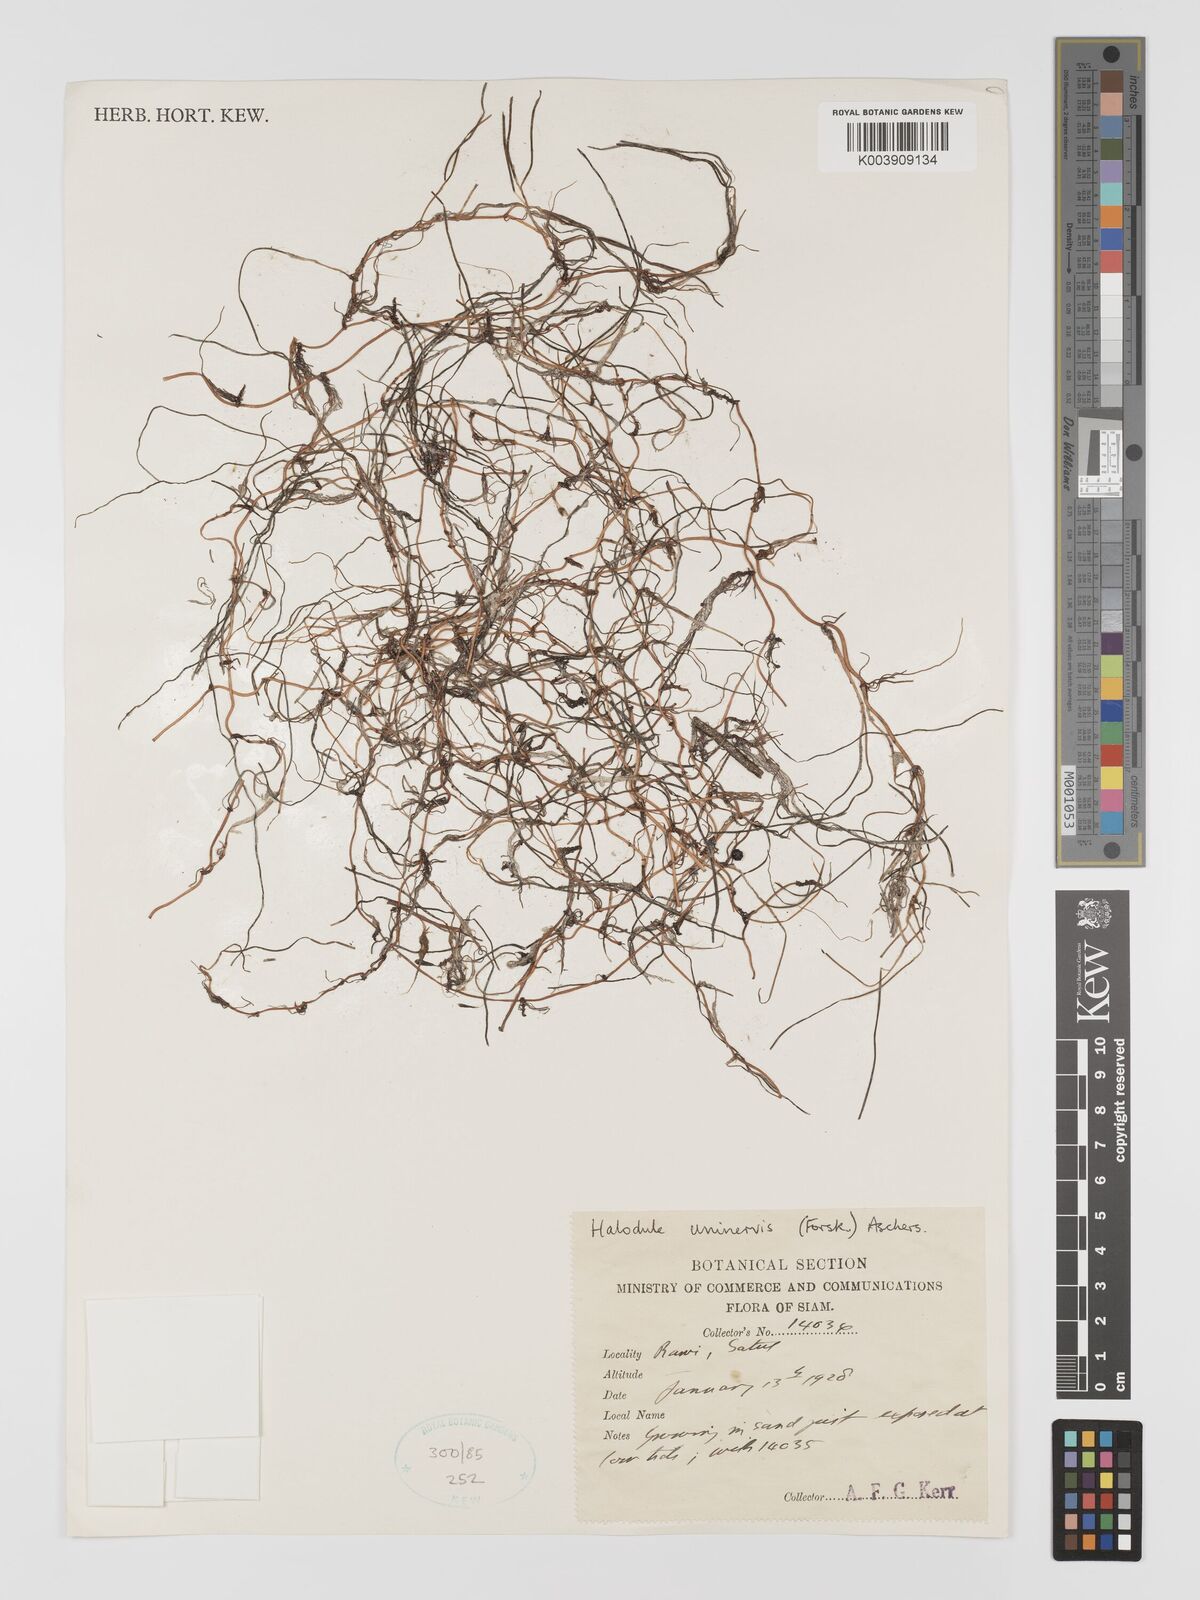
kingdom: Plantae
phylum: Tracheophyta
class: Liliopsida
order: Alismatales
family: Cymodoceaceae
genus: Halodule
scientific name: Halodule uninervis
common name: Narrowleaf seagrass
